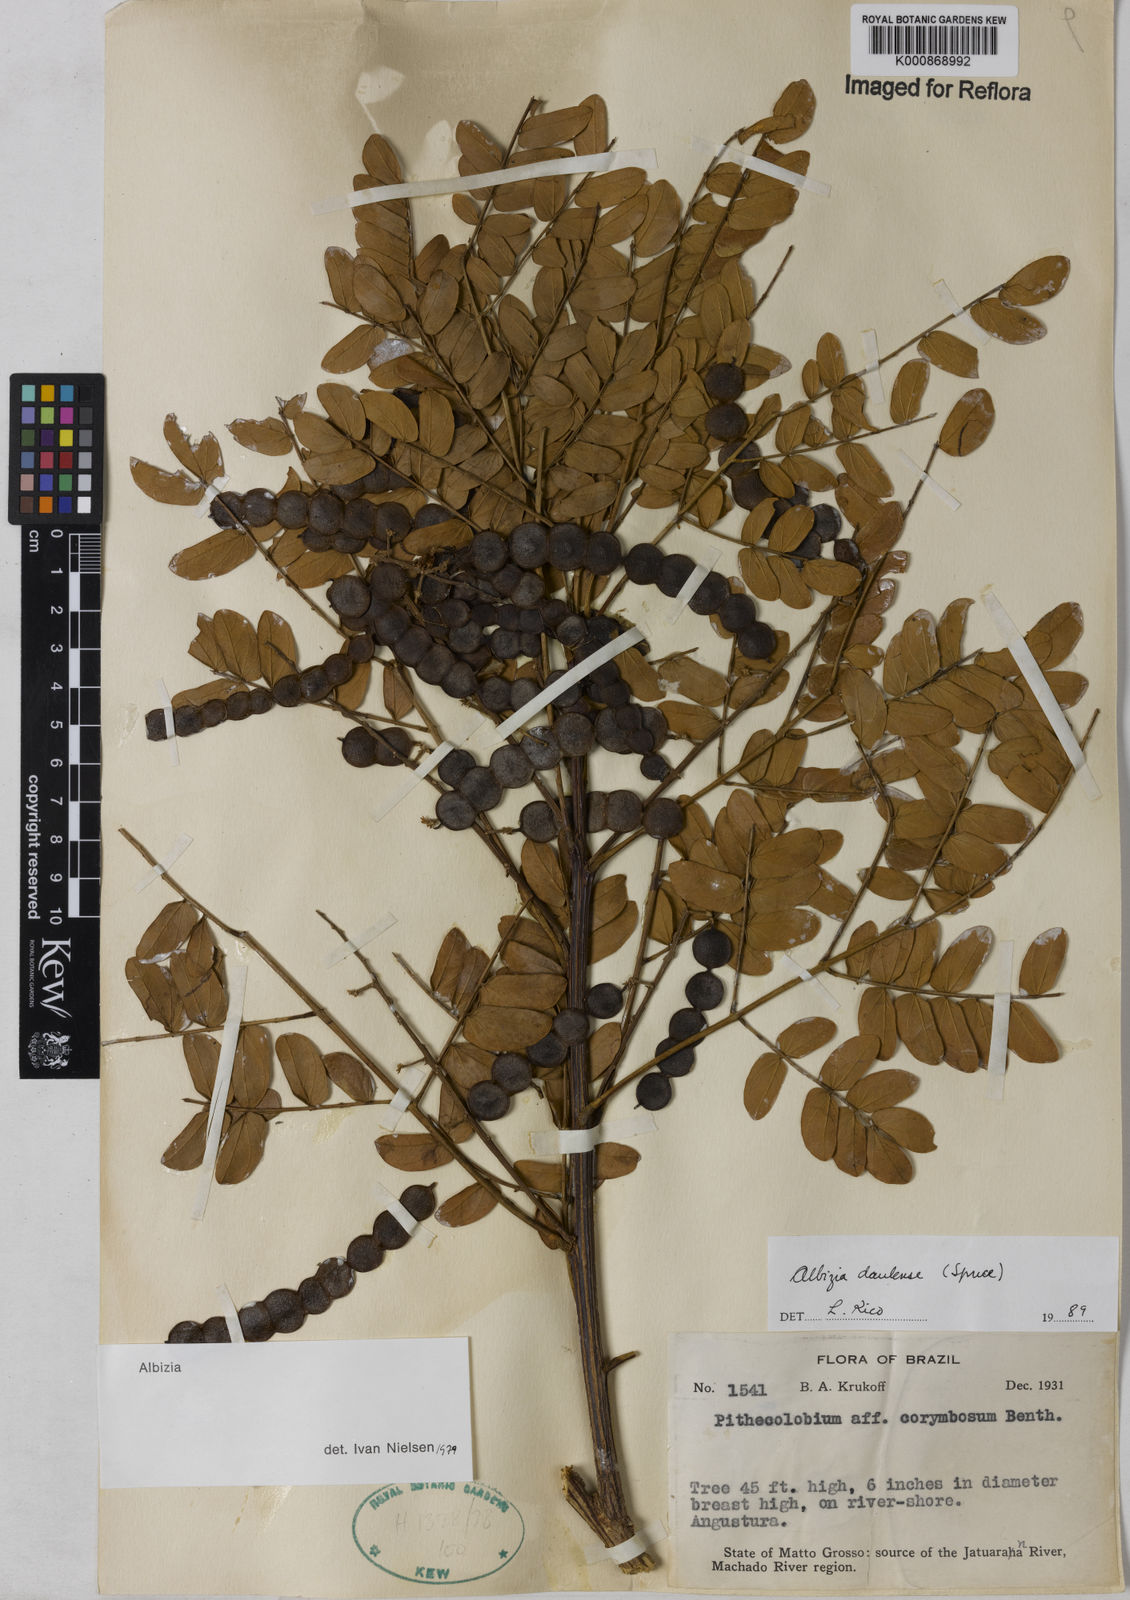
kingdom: Plantae
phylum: Tracheophyta
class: Magnoliopsida
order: Fabales
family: Fabaceae
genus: Albizia
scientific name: Albizia
